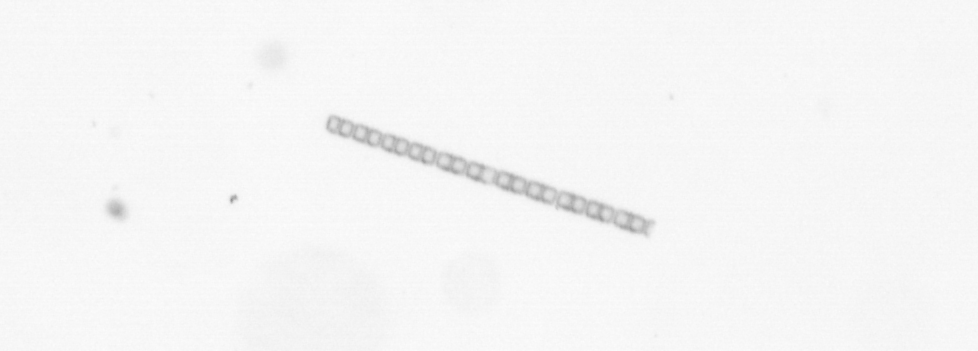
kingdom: Chromista
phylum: Ochrophyta
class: Bacillariophyceae
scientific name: Bacillariophyceae
